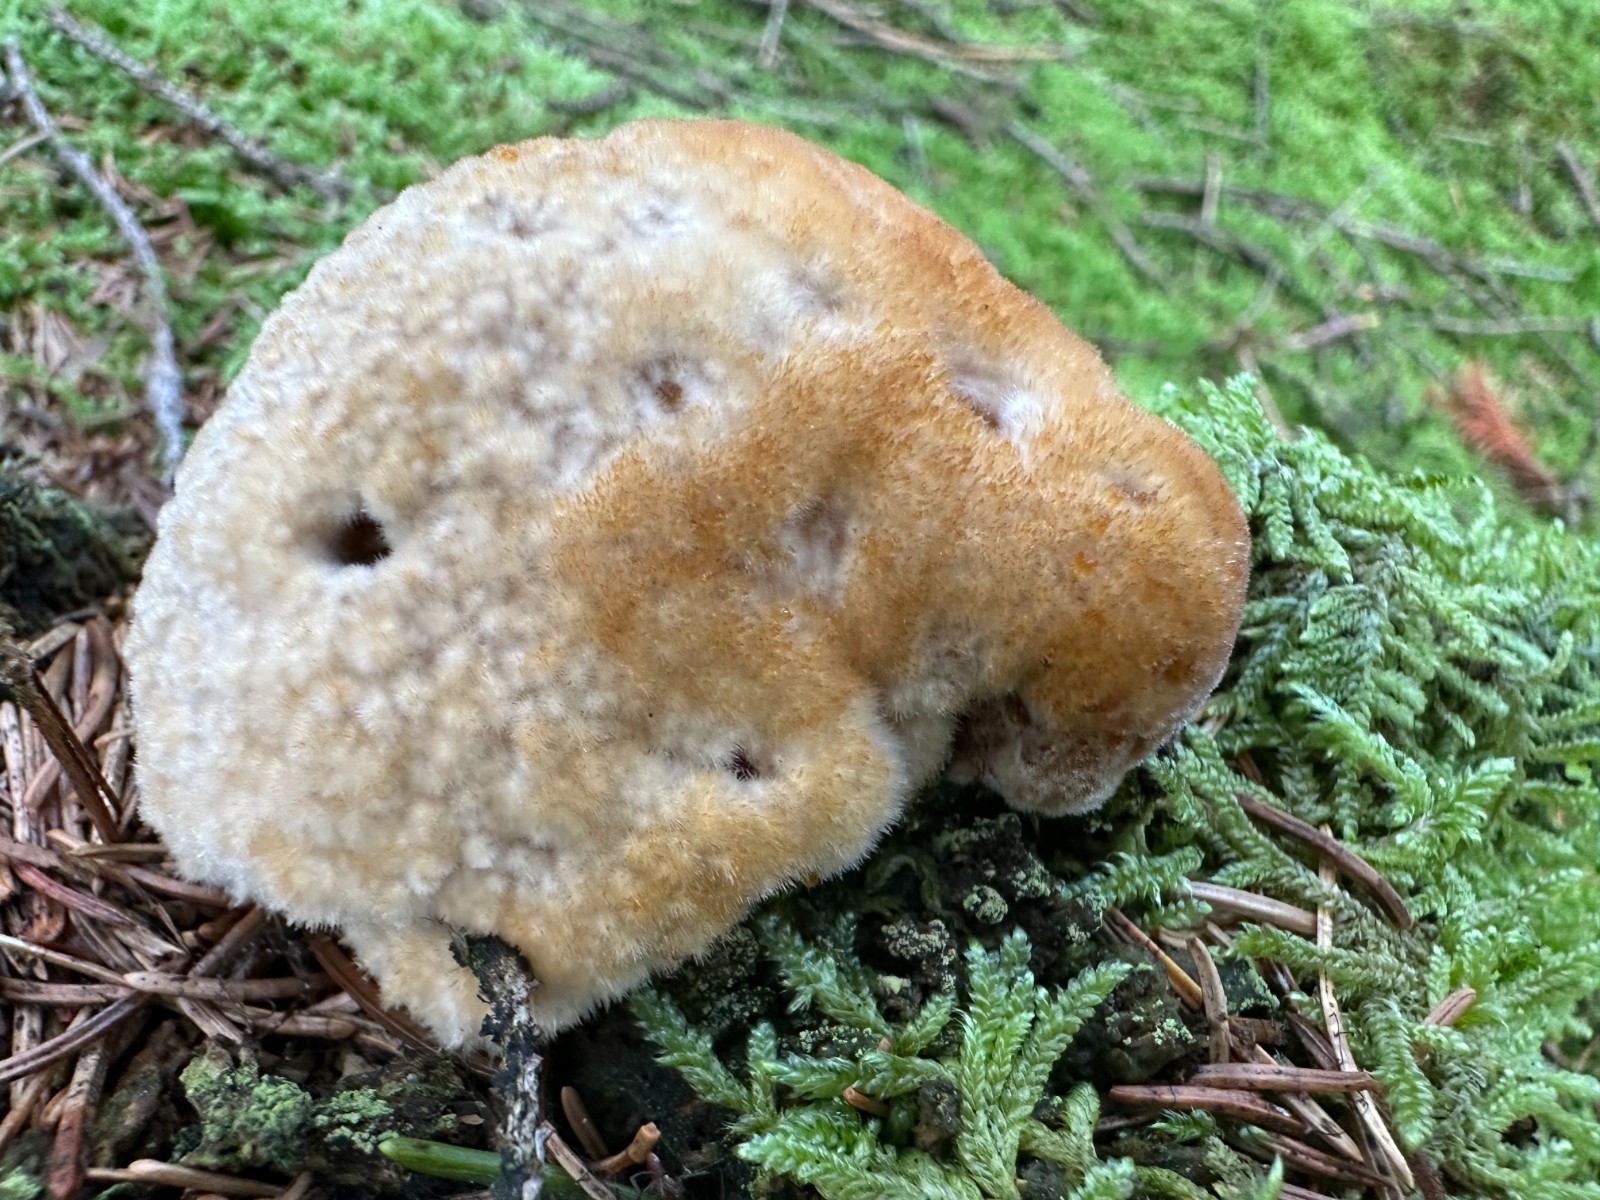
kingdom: Fungi
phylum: Basidiomycota
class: Agaricomycetes
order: Polyporales
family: Dacryobolaceae
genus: Postia
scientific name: Postia ptychogaster
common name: støvende kødporesvamp
